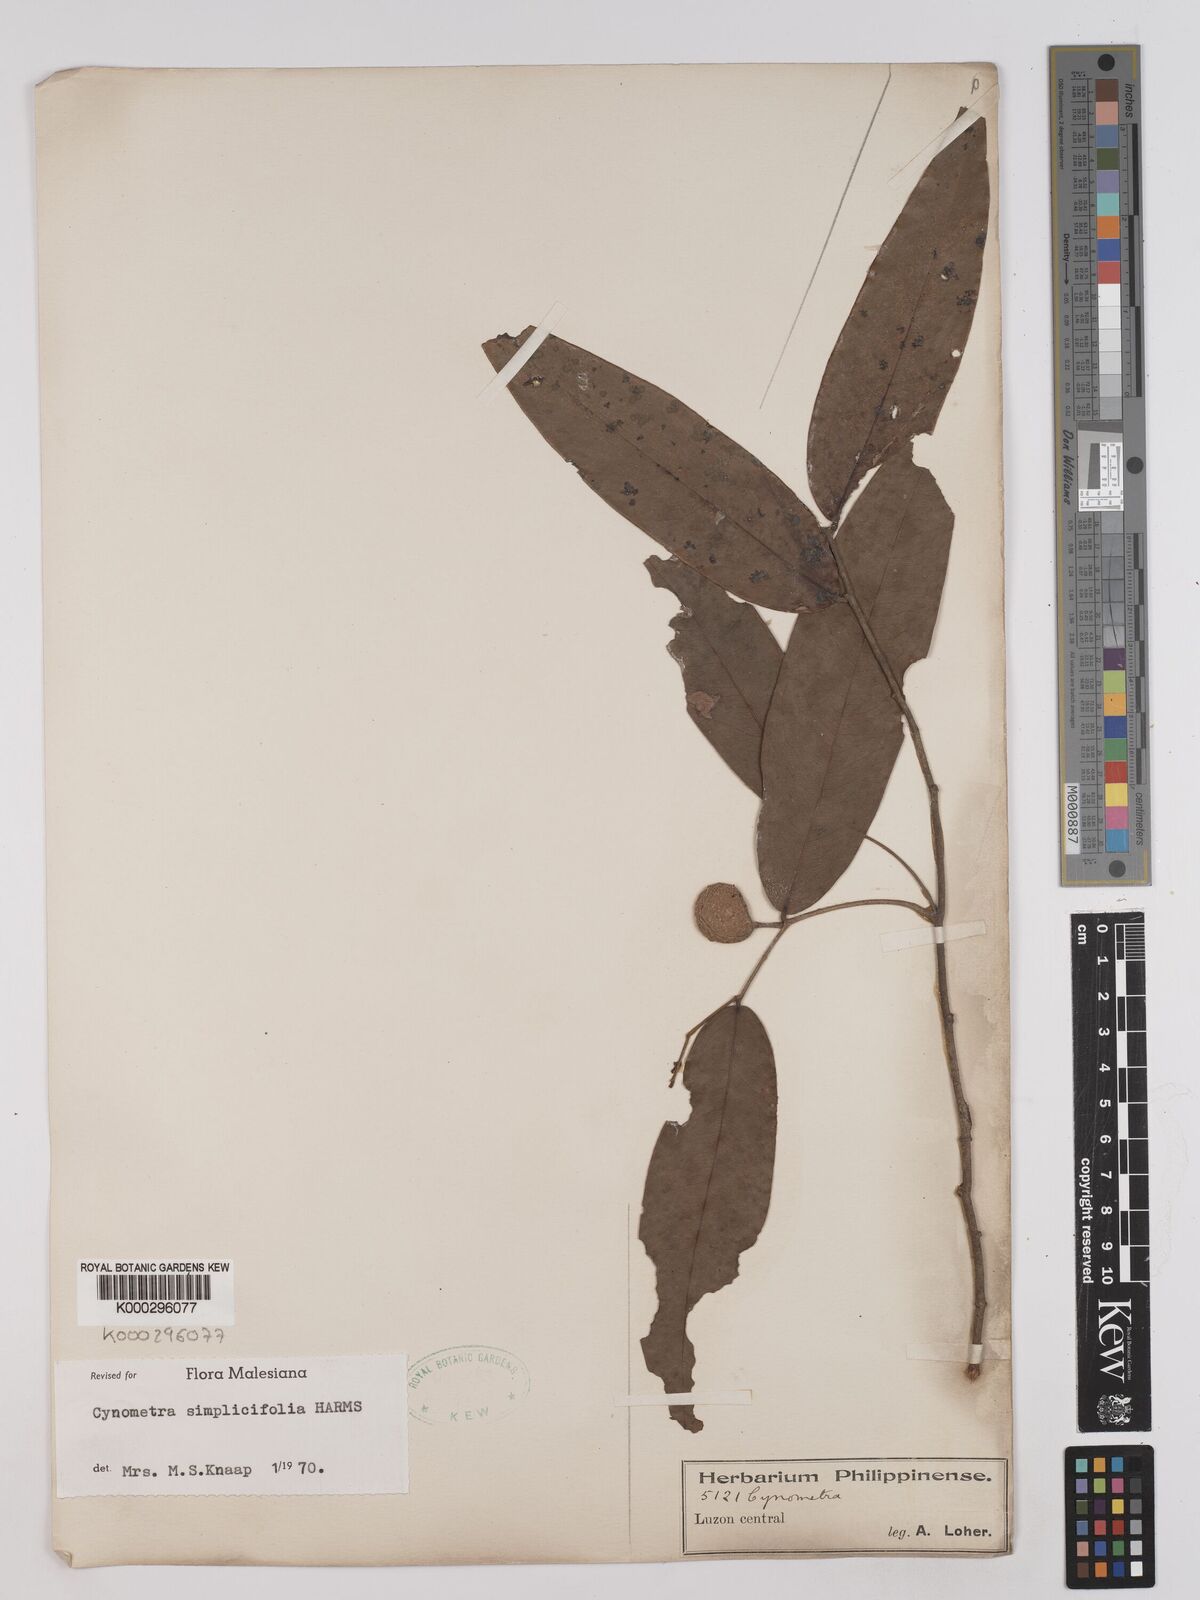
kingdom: Plantae
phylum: Tracheophyta
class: Magnoliopsida
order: Fabales
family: Fabaceae
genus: Cynometra
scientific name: Cynometra simplicifolia
